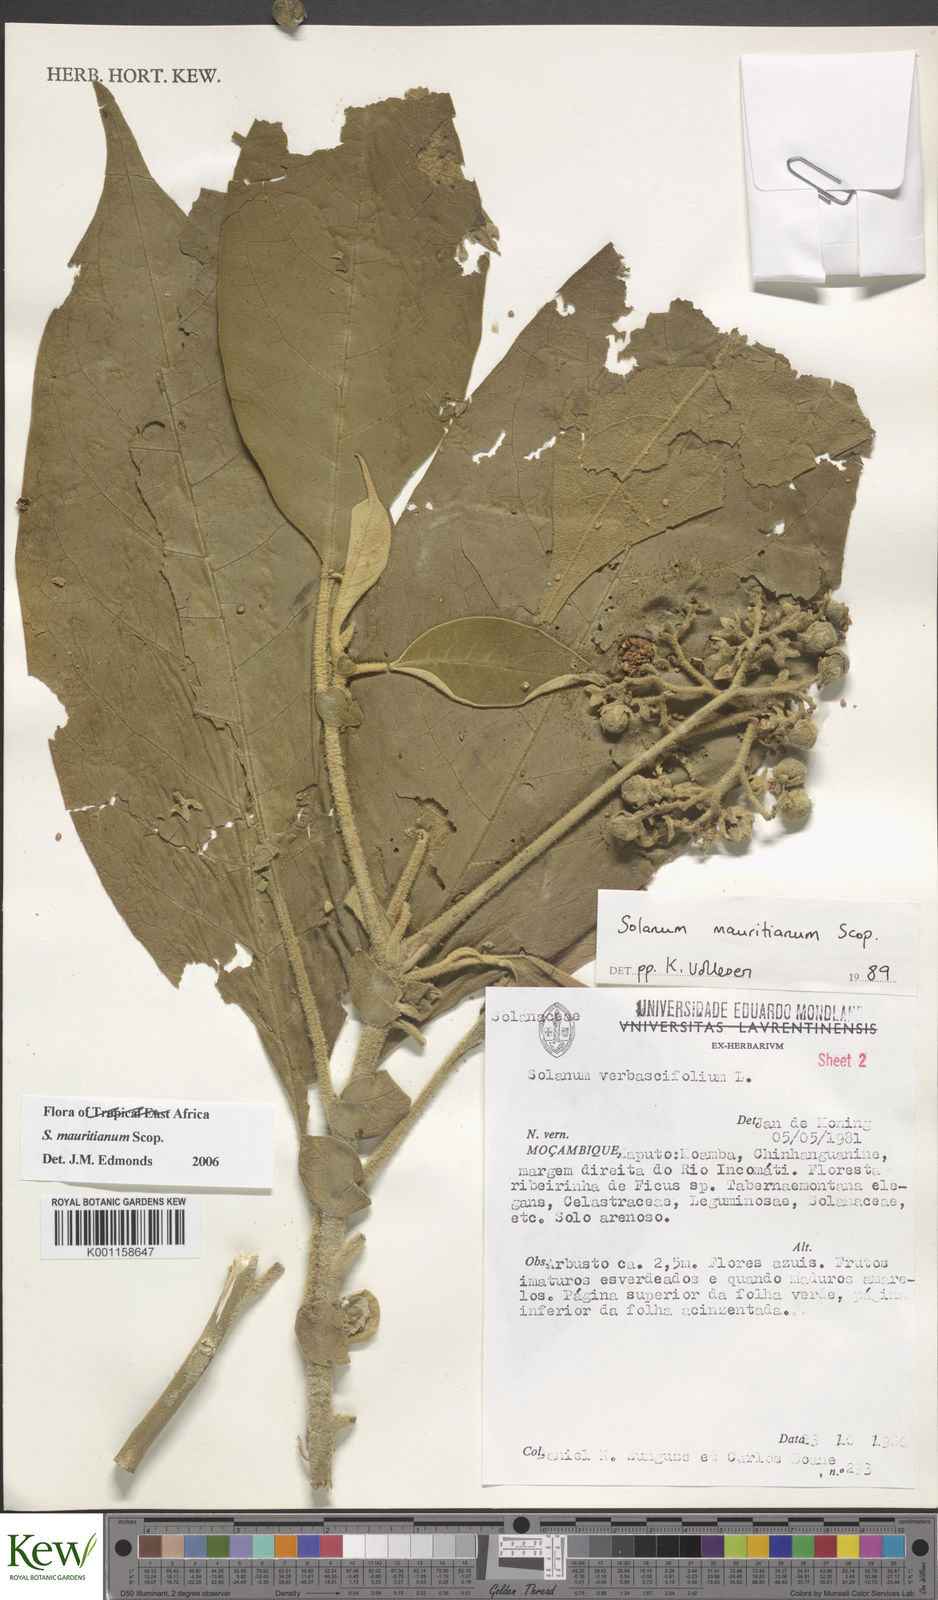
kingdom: Plantae
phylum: Tracheophyta
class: Magnoliopsida
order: Solanales
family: Solanaceae
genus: Solanum
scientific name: Solanum mauritianum
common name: Earleaf nightshade
